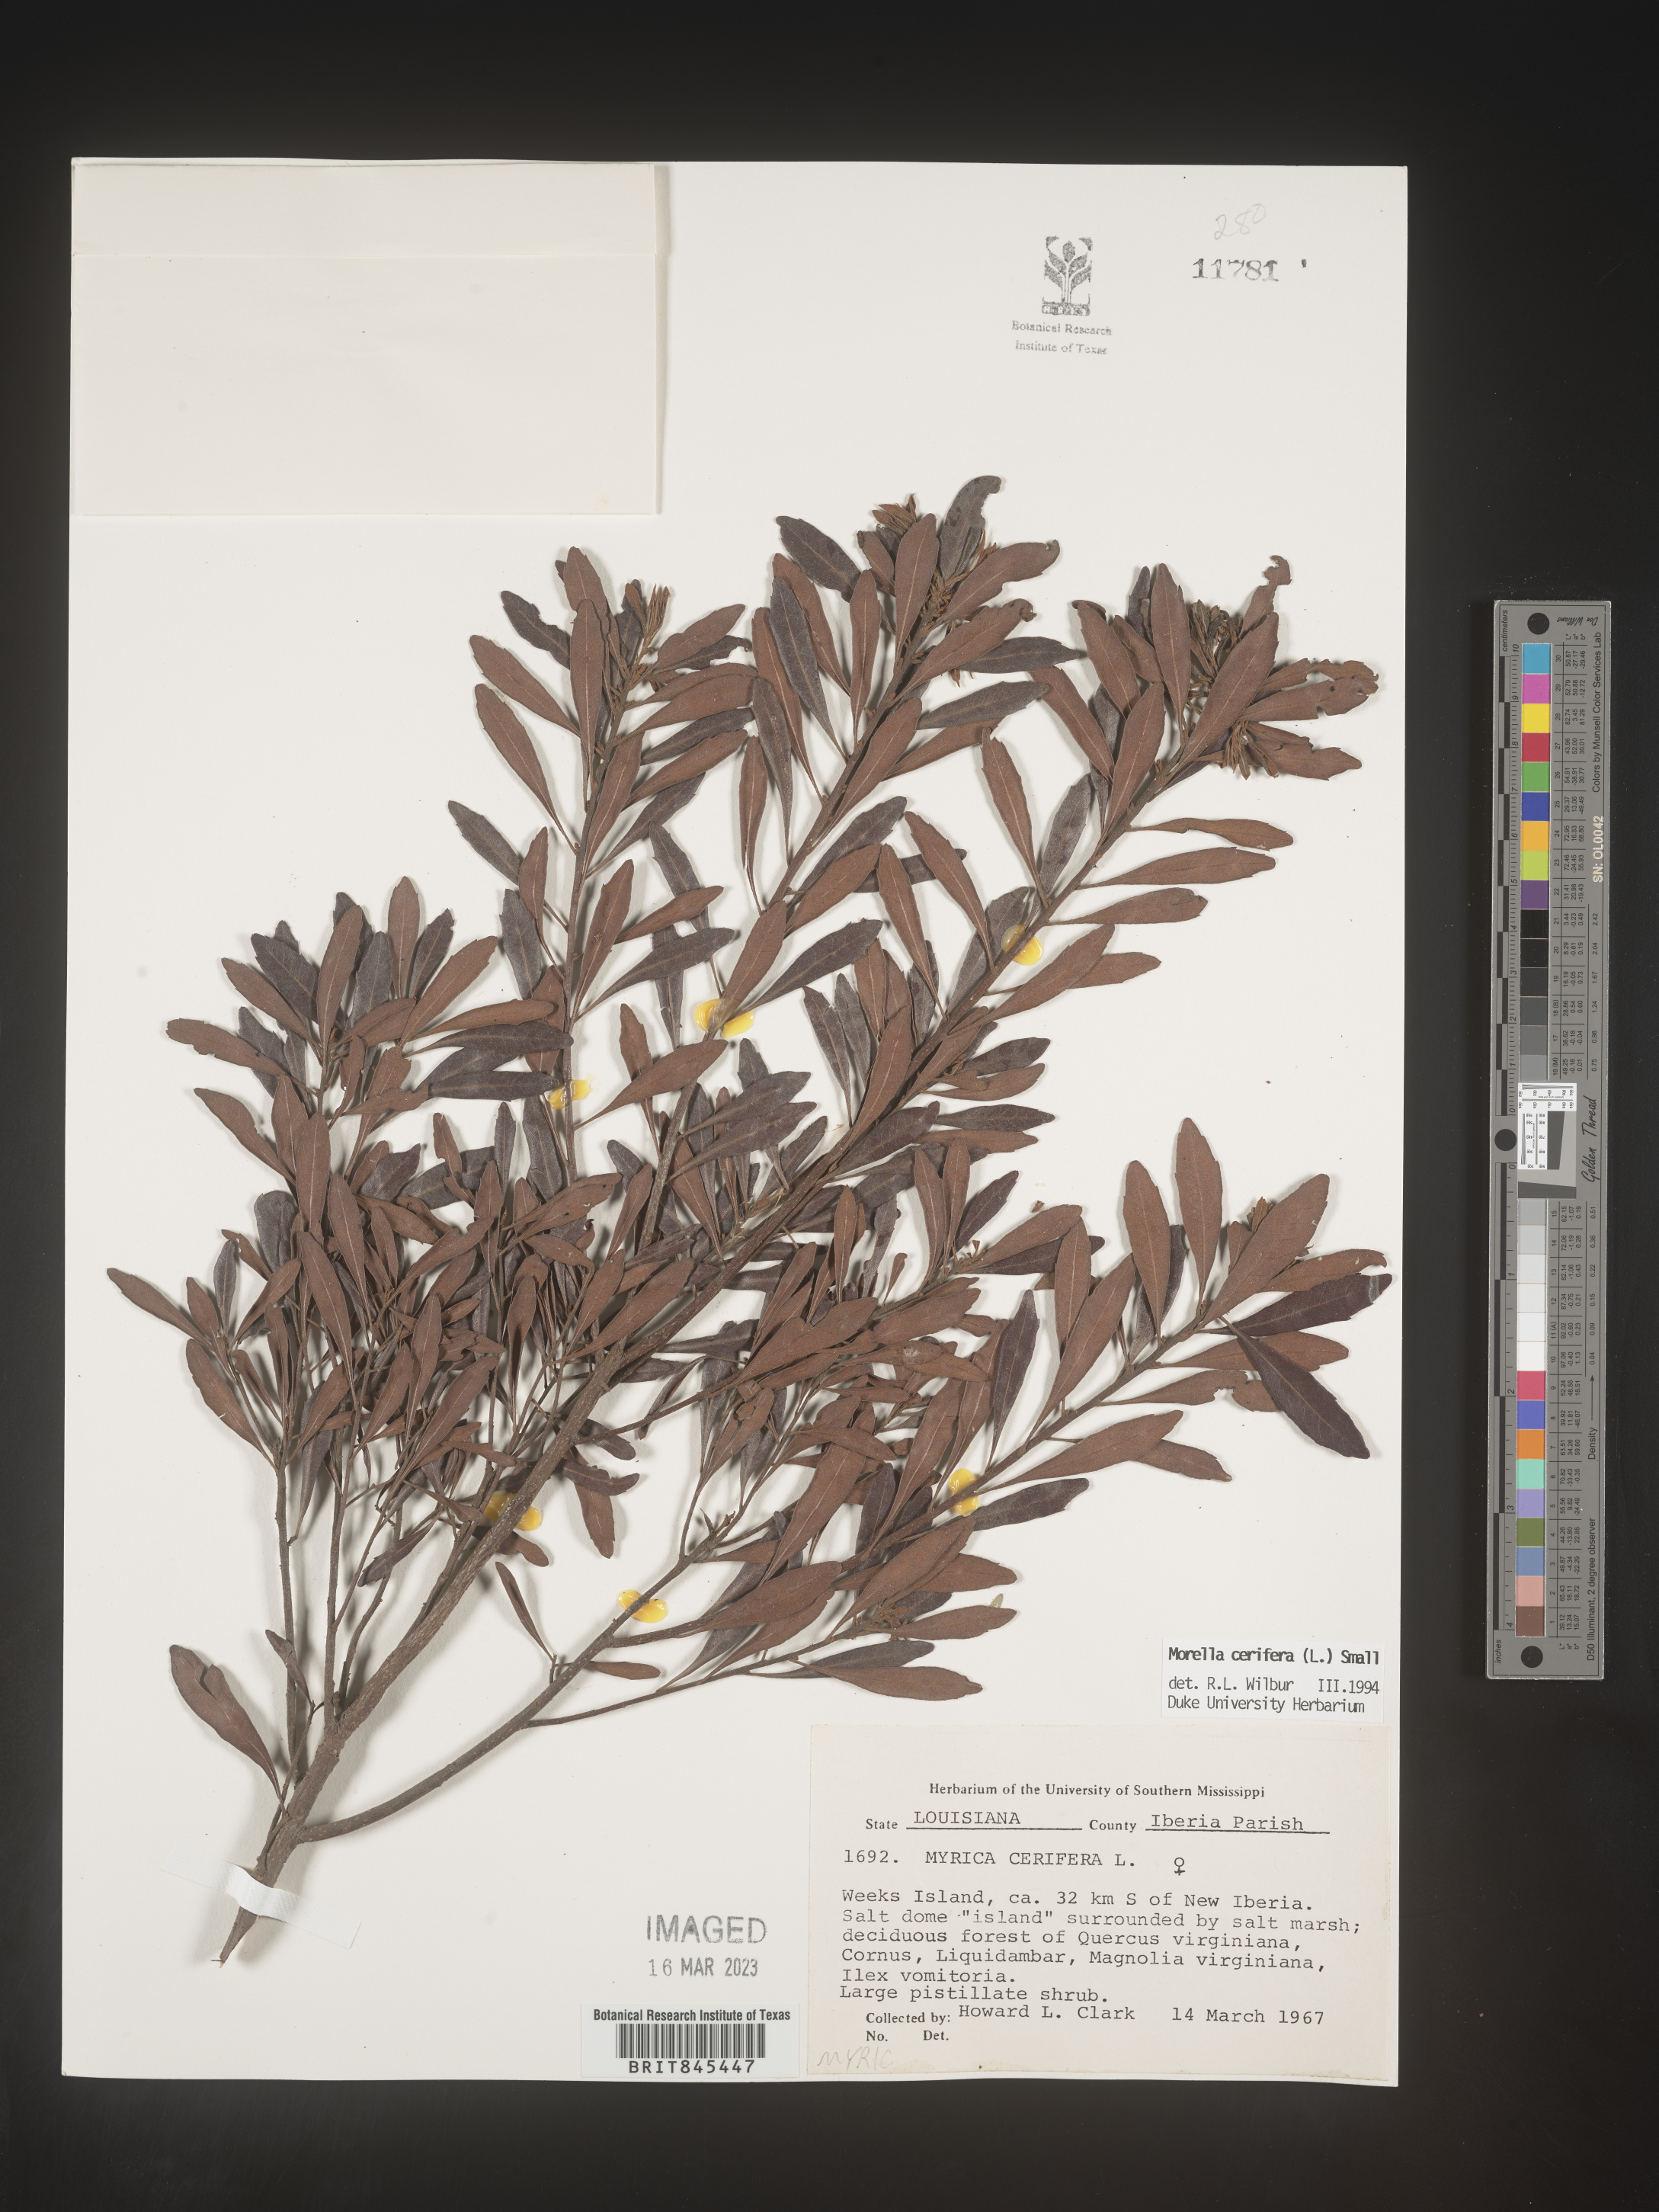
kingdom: Plantae
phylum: Tracheophyta
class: Magnoliopsida
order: Fagales
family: Myricaceae
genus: Morella
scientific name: Morella cerifera
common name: Wax myrtle
